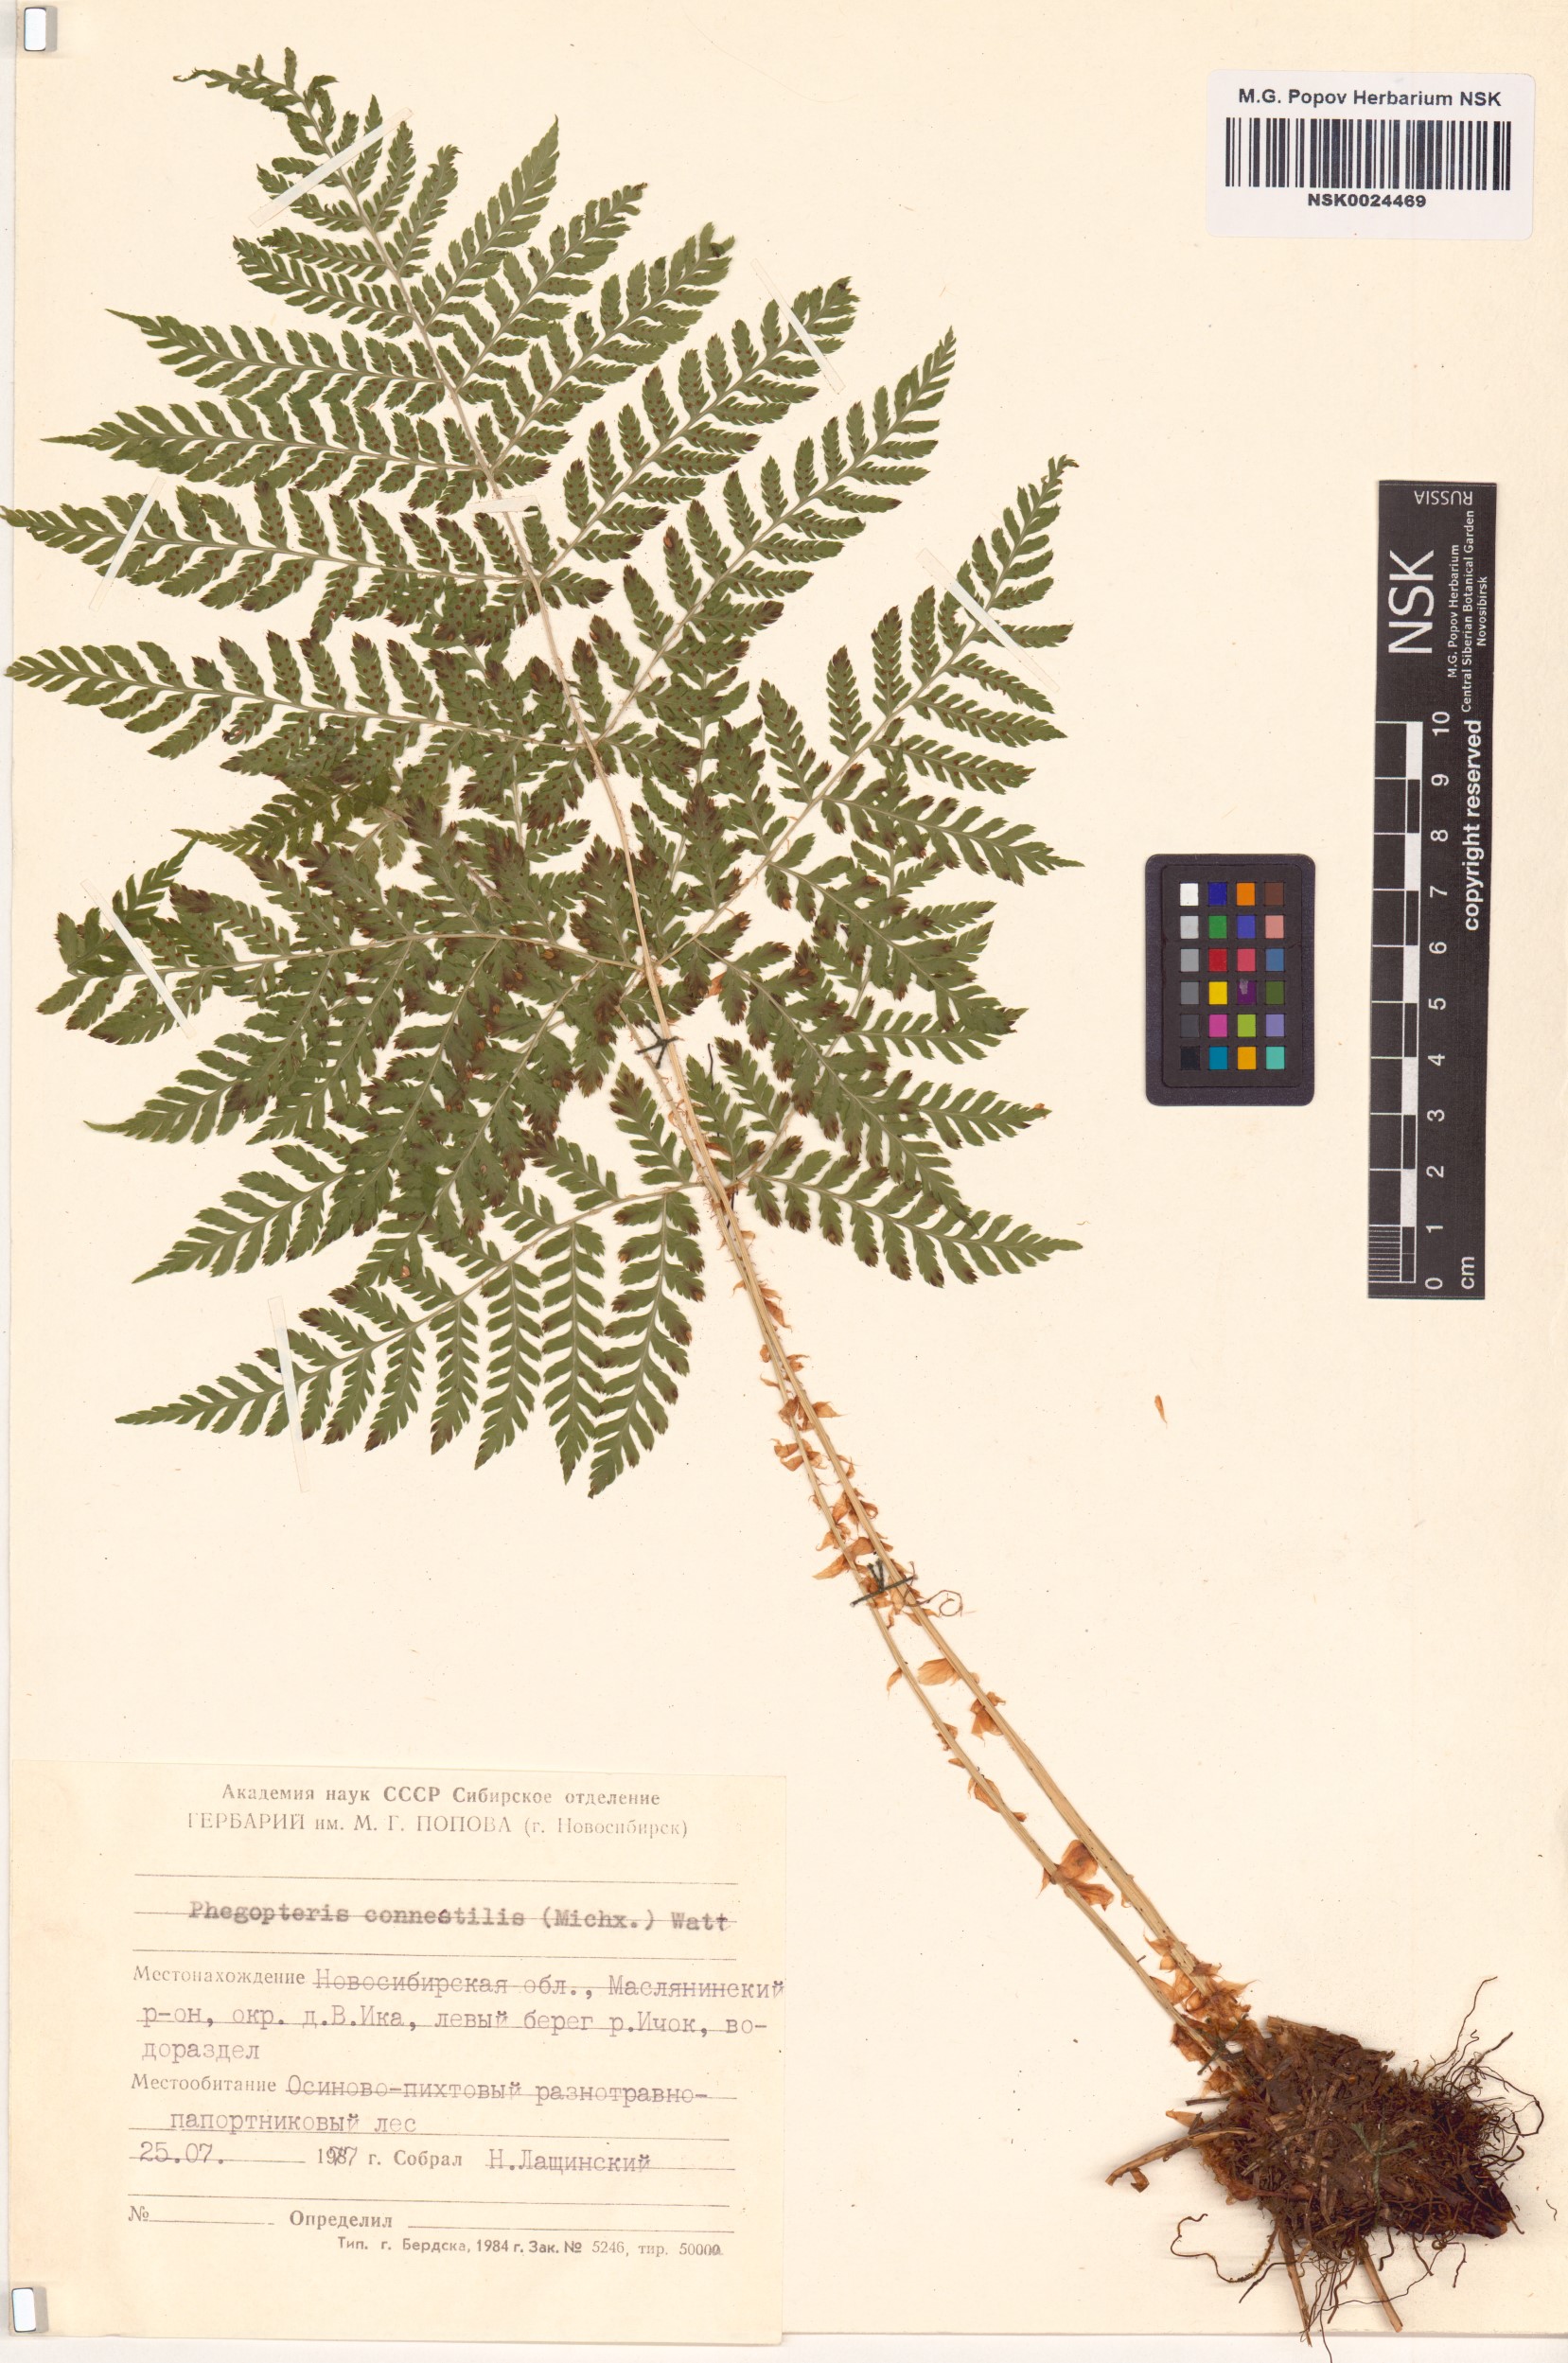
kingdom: Plantae
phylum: Tracheophyta
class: Polypodiopsida
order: Polypodiales
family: Thelypteridaceae
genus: Phegopteris
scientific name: Phegopteris connectilis
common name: Beech fern
